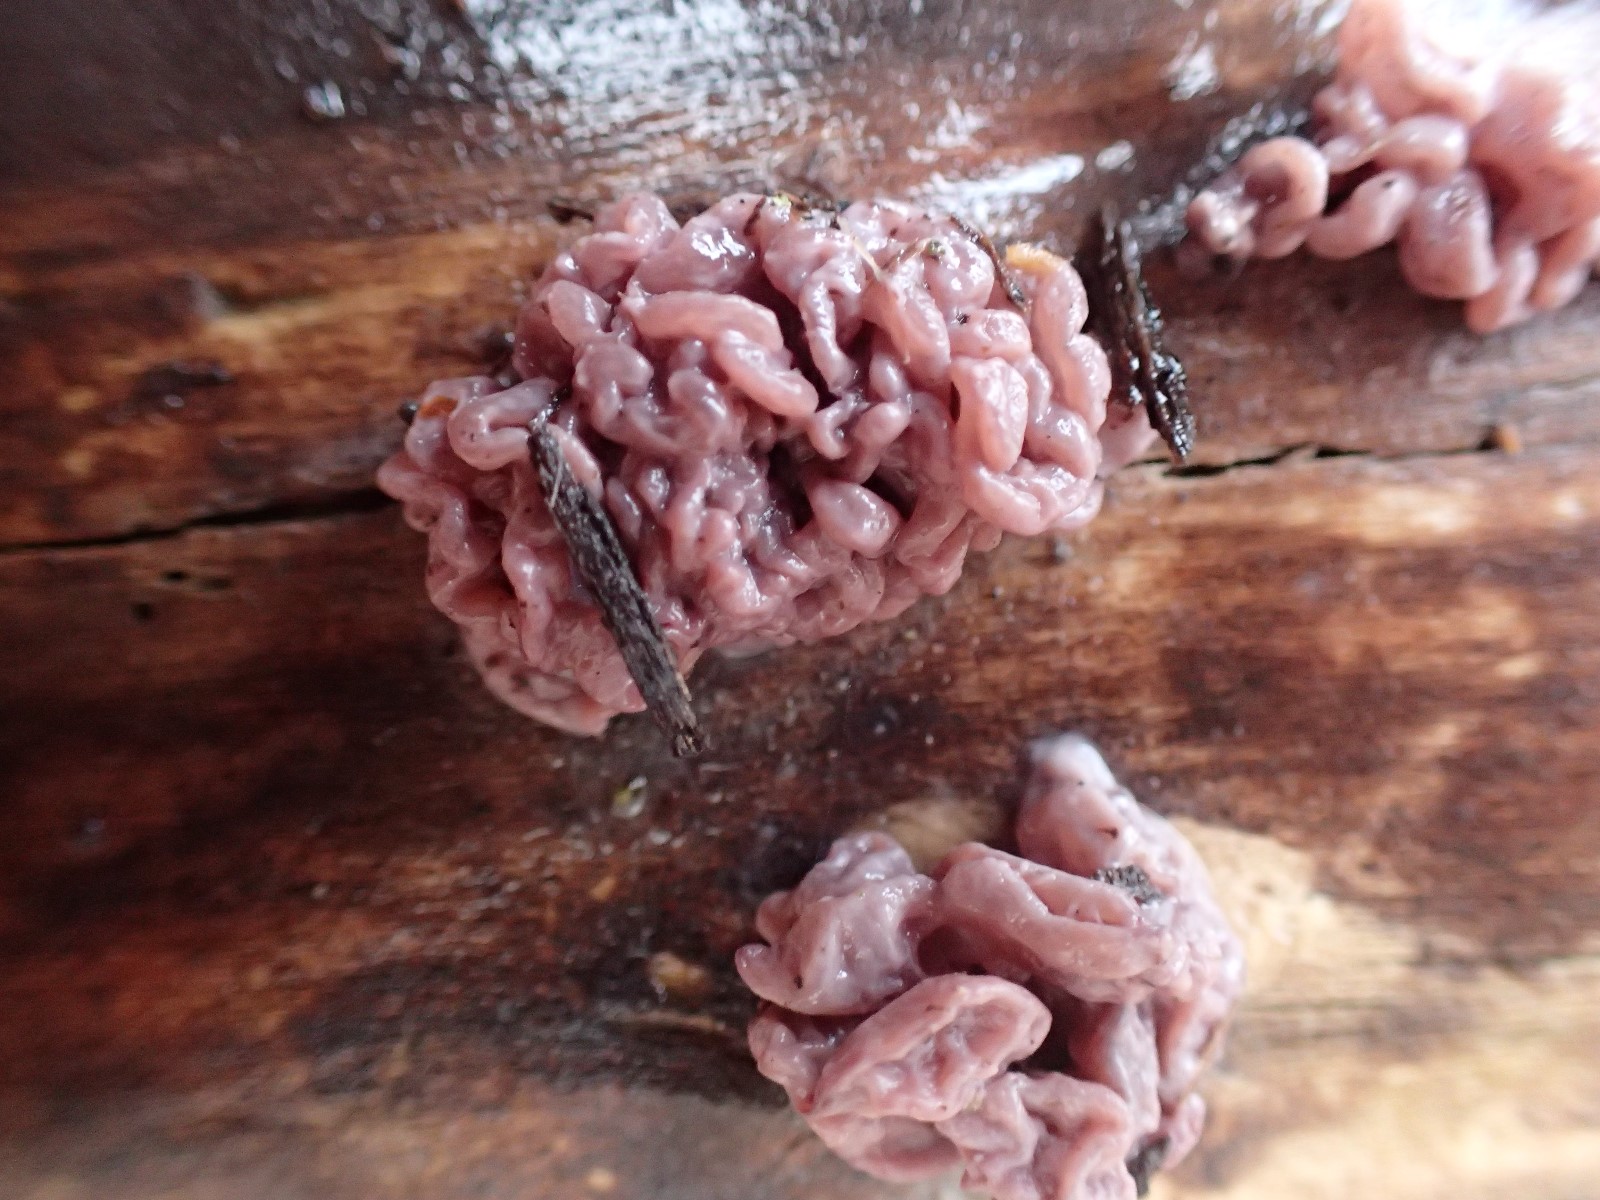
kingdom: Fungi
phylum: Ascomycota
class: Leotiomycetes
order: Helotiales
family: Gelatinodiscaceae
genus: Ascocoryne
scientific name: Ascocoryne sarcoides
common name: rødlilla sejskive
